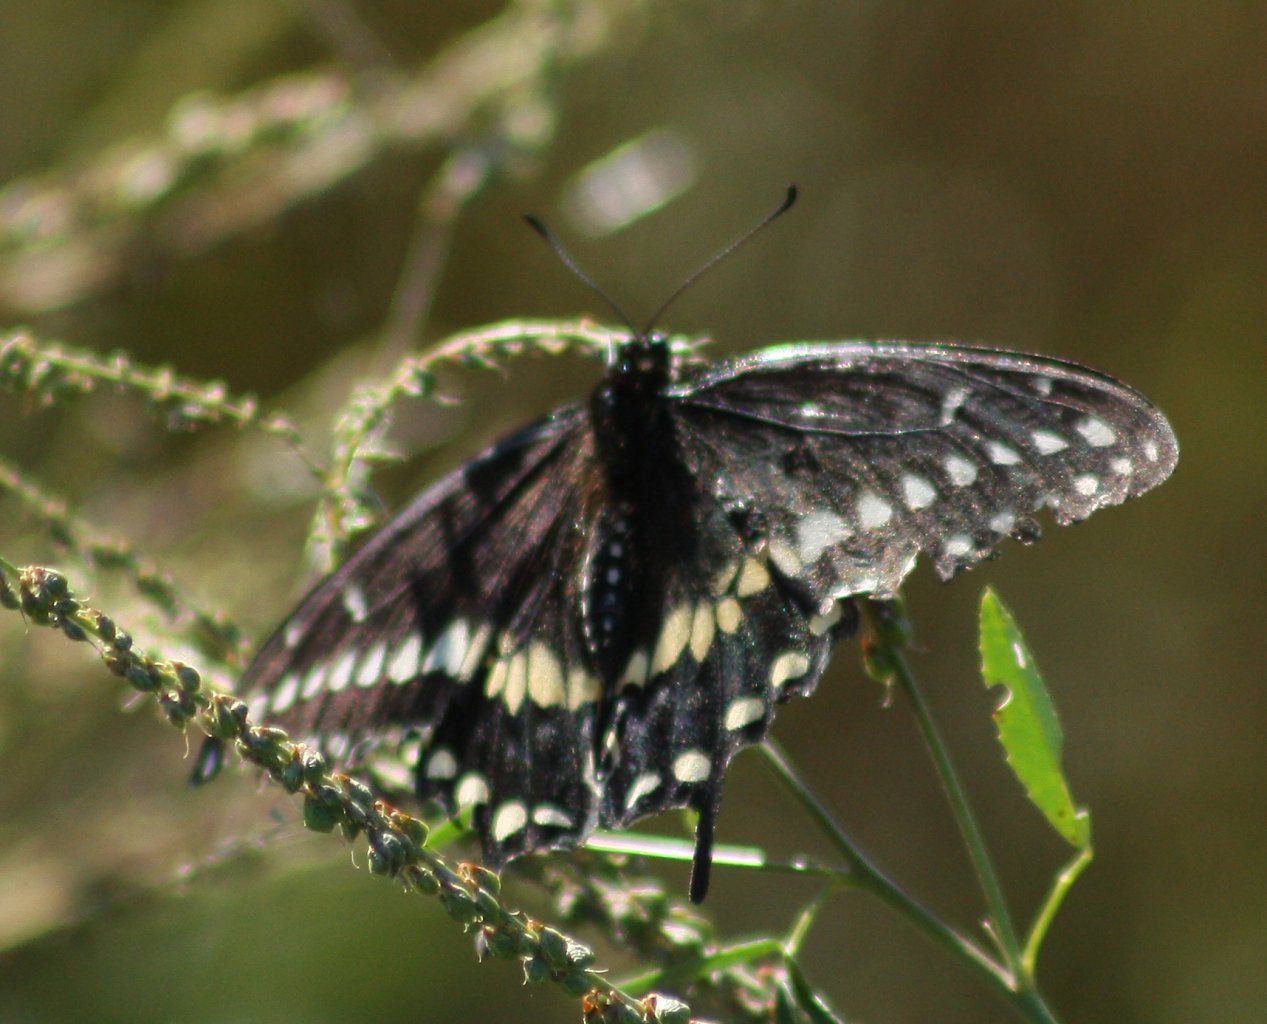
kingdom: Animalia
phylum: Arthropoda
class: Insecta
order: Lepidoptera
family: Papilionidae
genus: Papilio
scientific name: Papilio polyxenes
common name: Black Swallowtail
